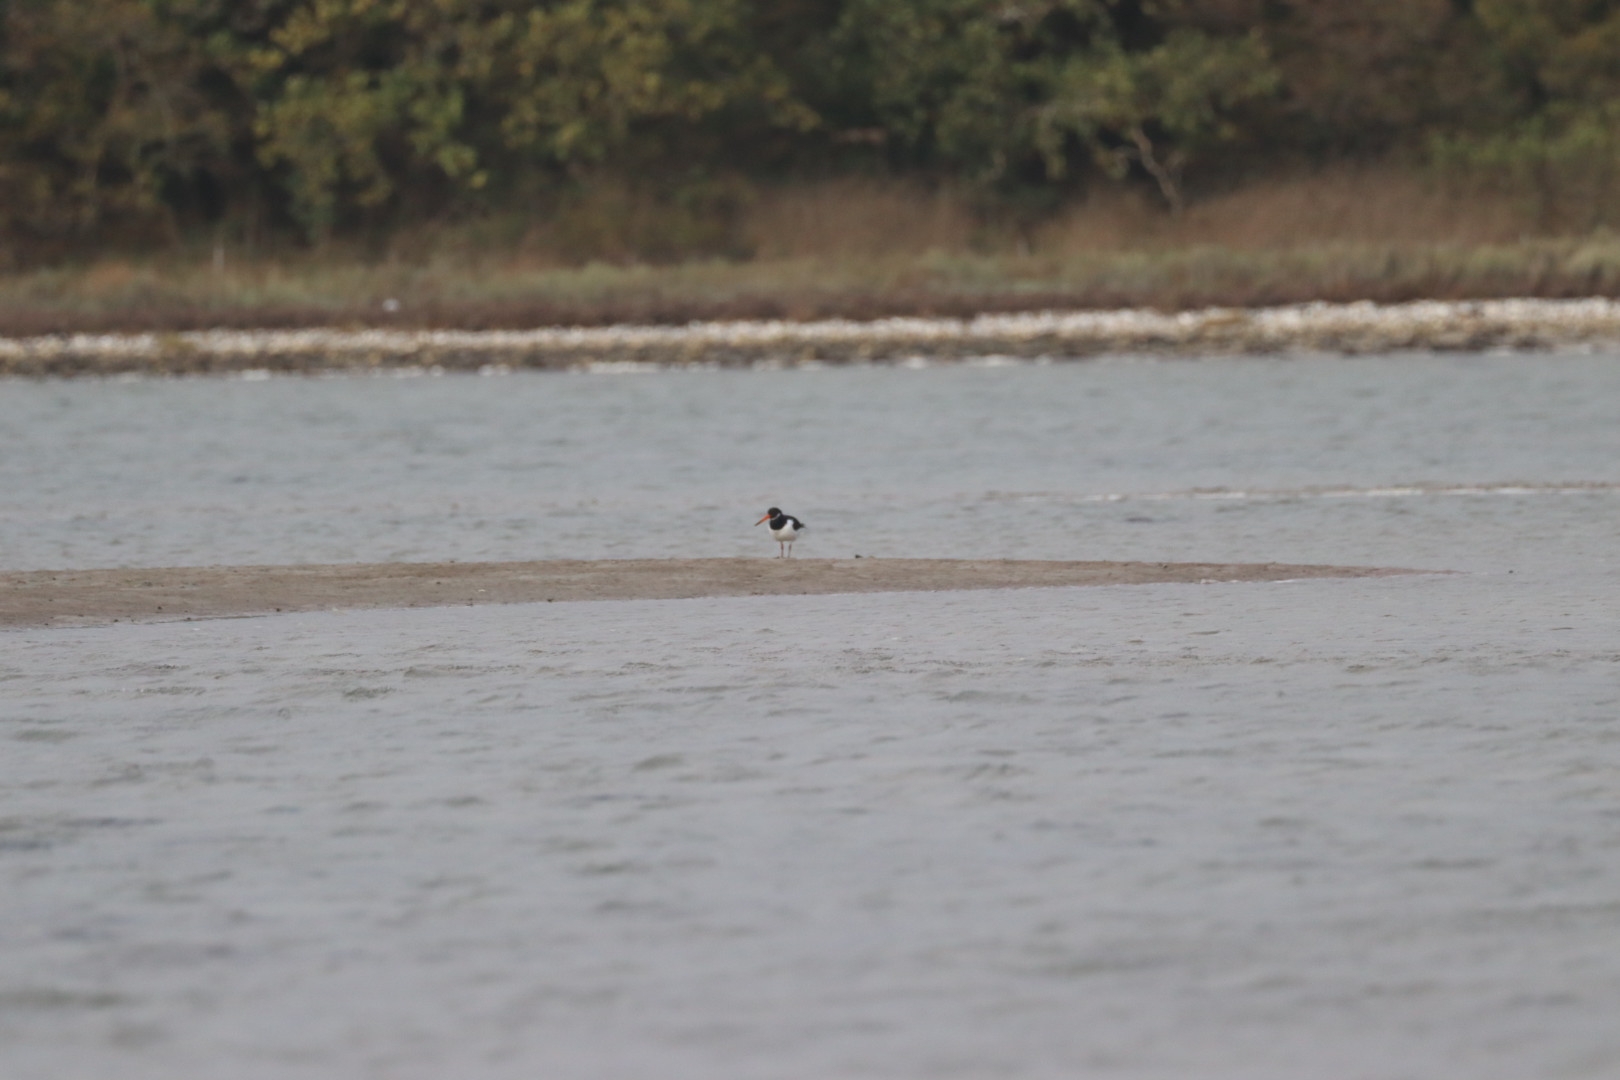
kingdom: Animalia
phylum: Chordata
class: Aves
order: Charadriiformes
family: Haematopodidae
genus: Haematopus
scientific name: Haematopus ostralegus
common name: Strandskade
